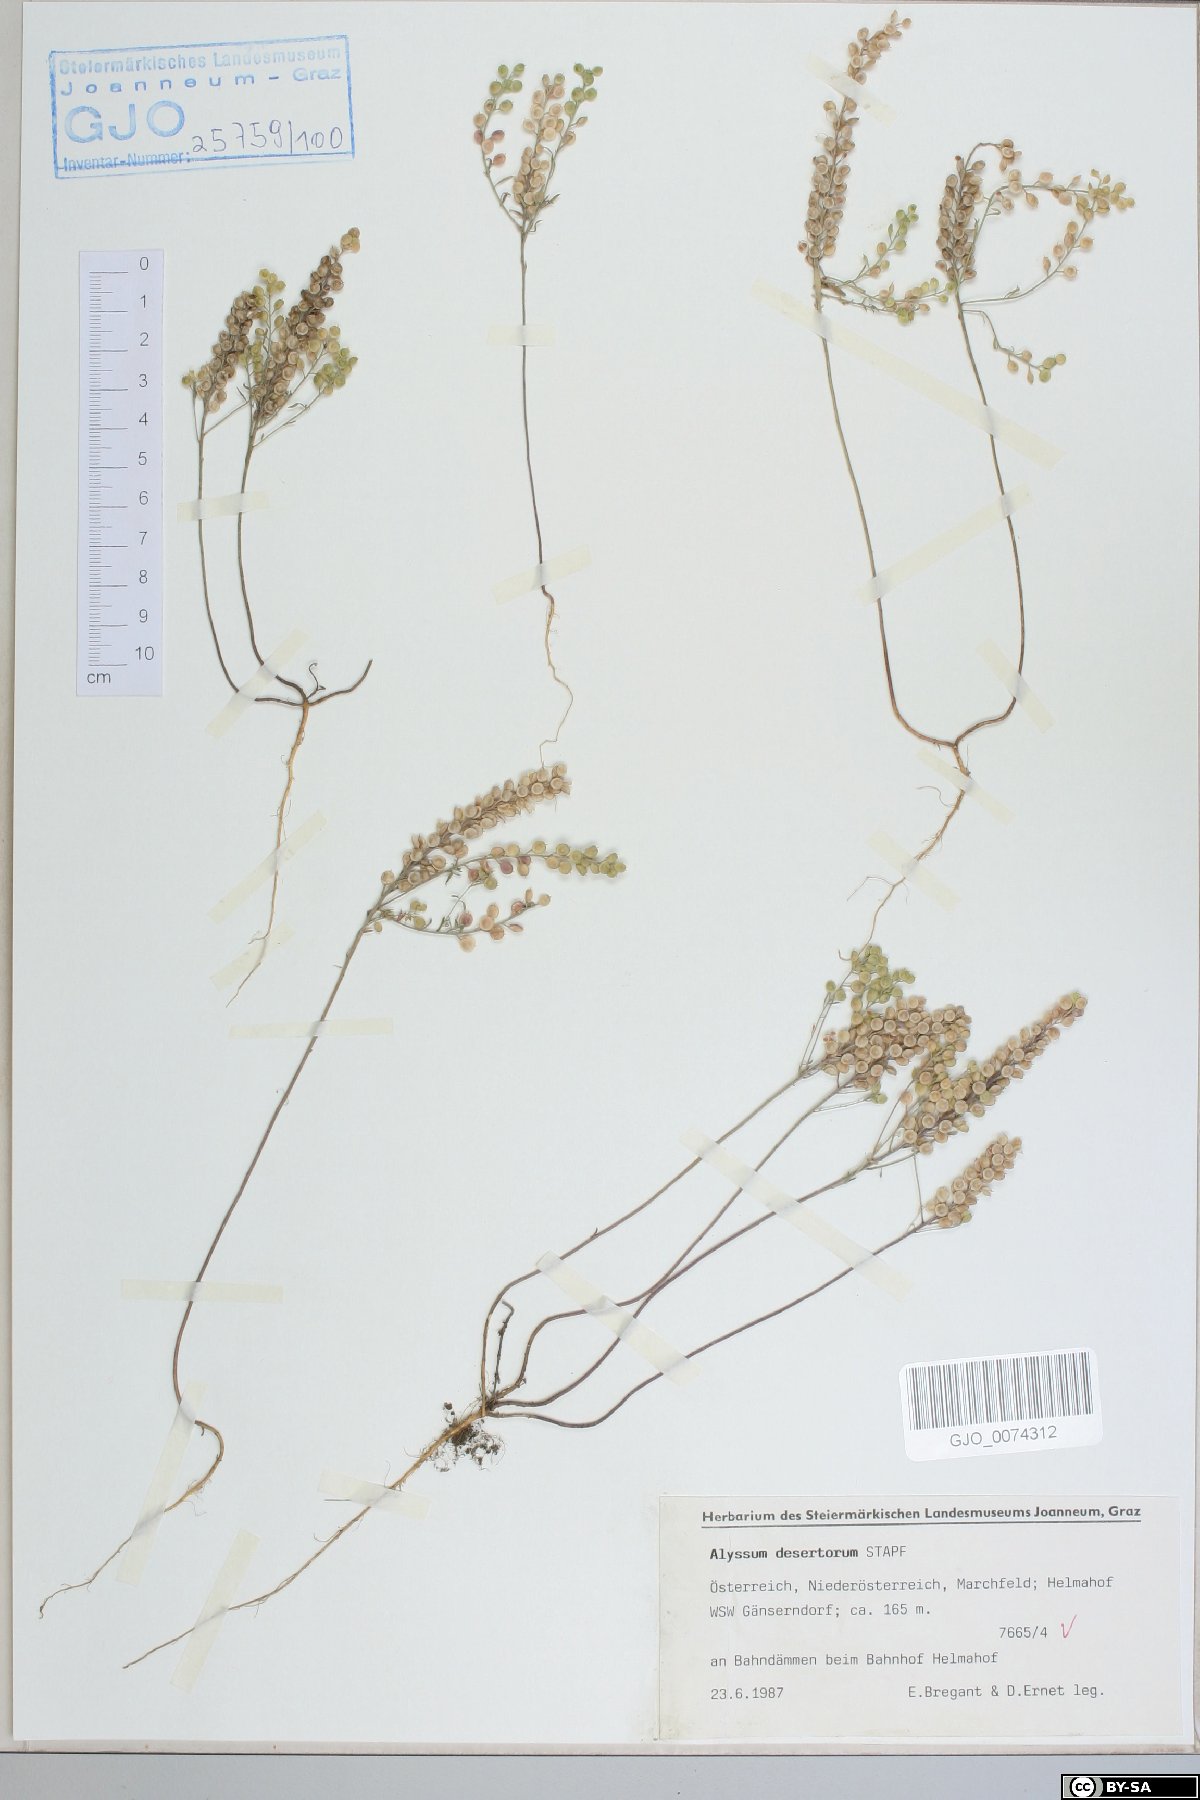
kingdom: Plantae
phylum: Tracheophyta
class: Magnoliopsida
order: Brassicales
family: Brassicaceae
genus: Alyssum
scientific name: Alyssum turkestanicum
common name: Desert alyssum
